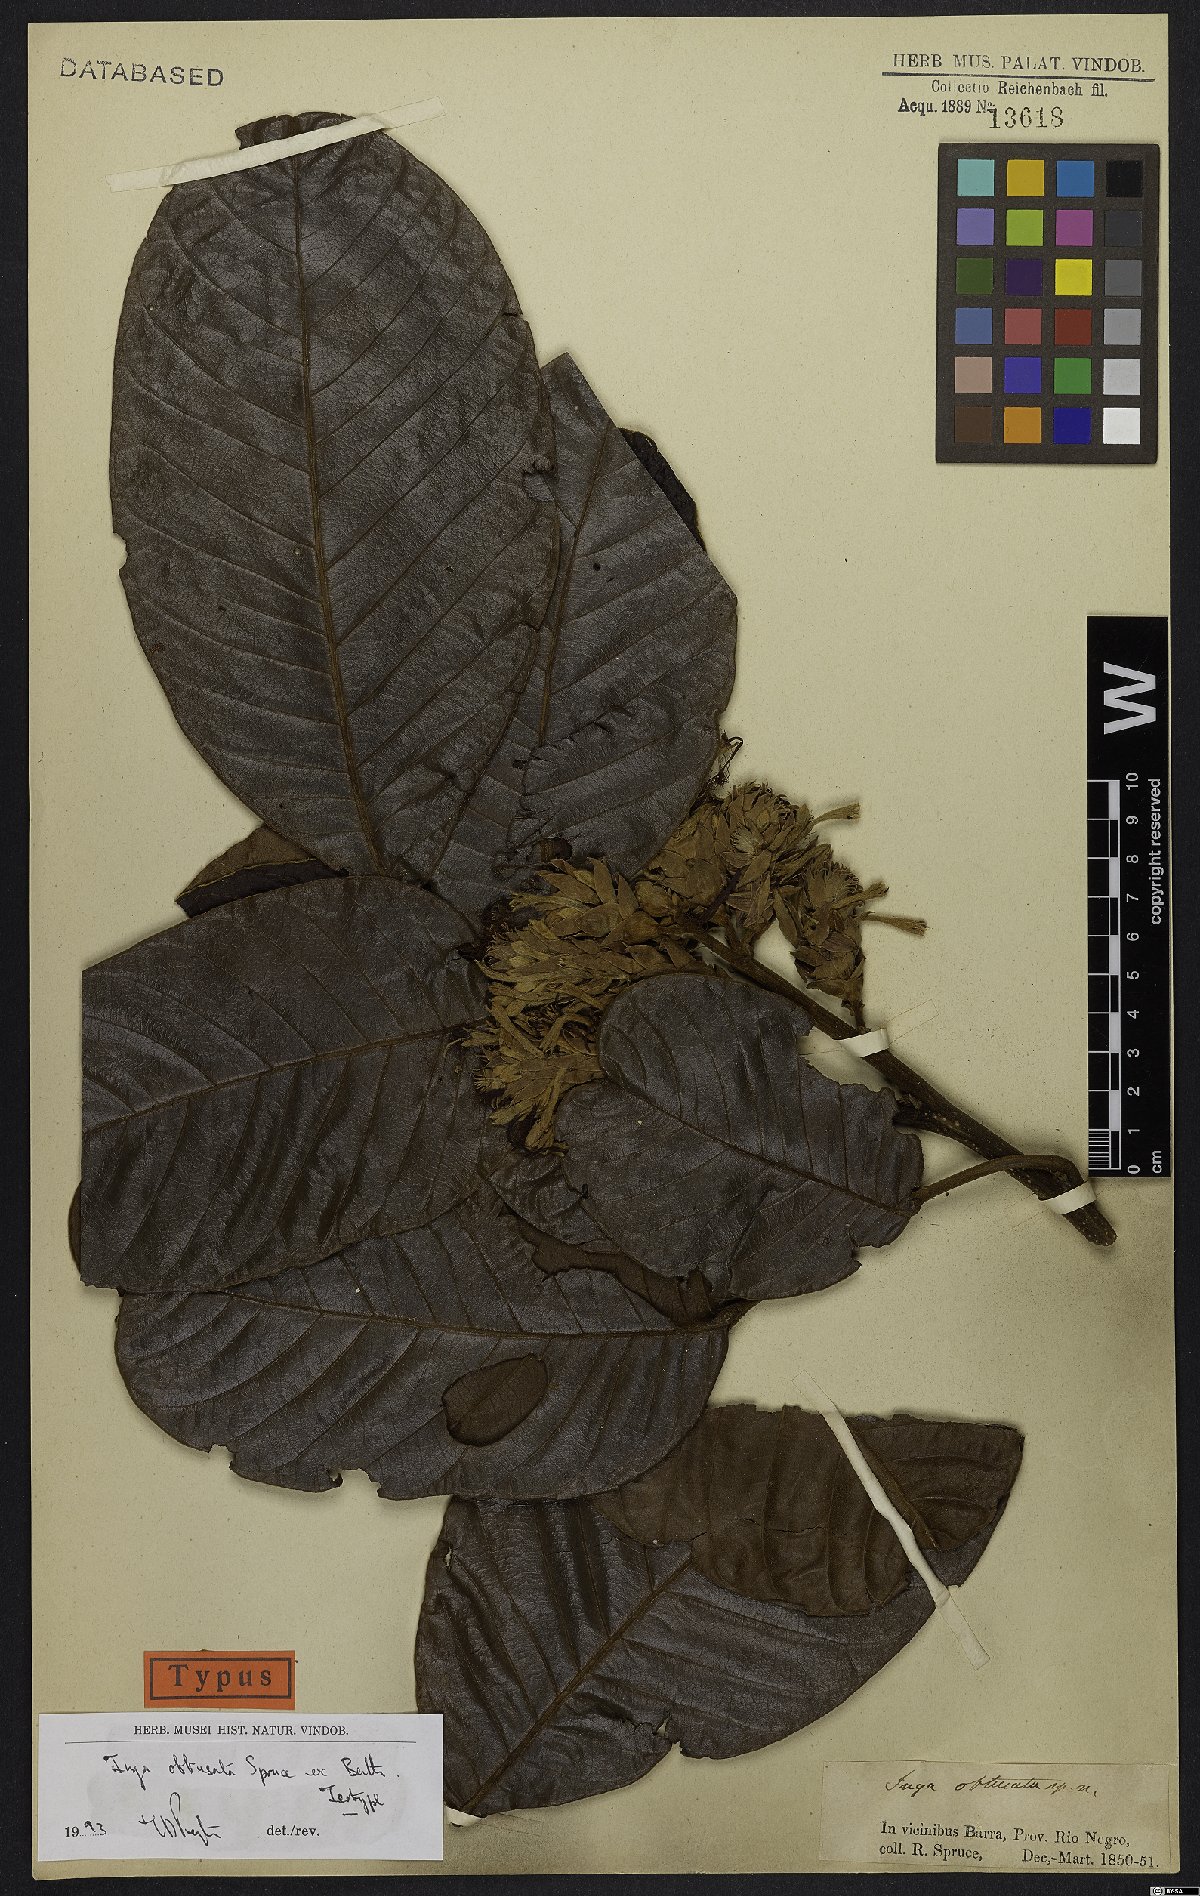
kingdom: Plantae
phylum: Tracheophyta
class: Magnoliopsida
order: Fabales
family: Fabaceae
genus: Inga
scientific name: Inga obtusata
